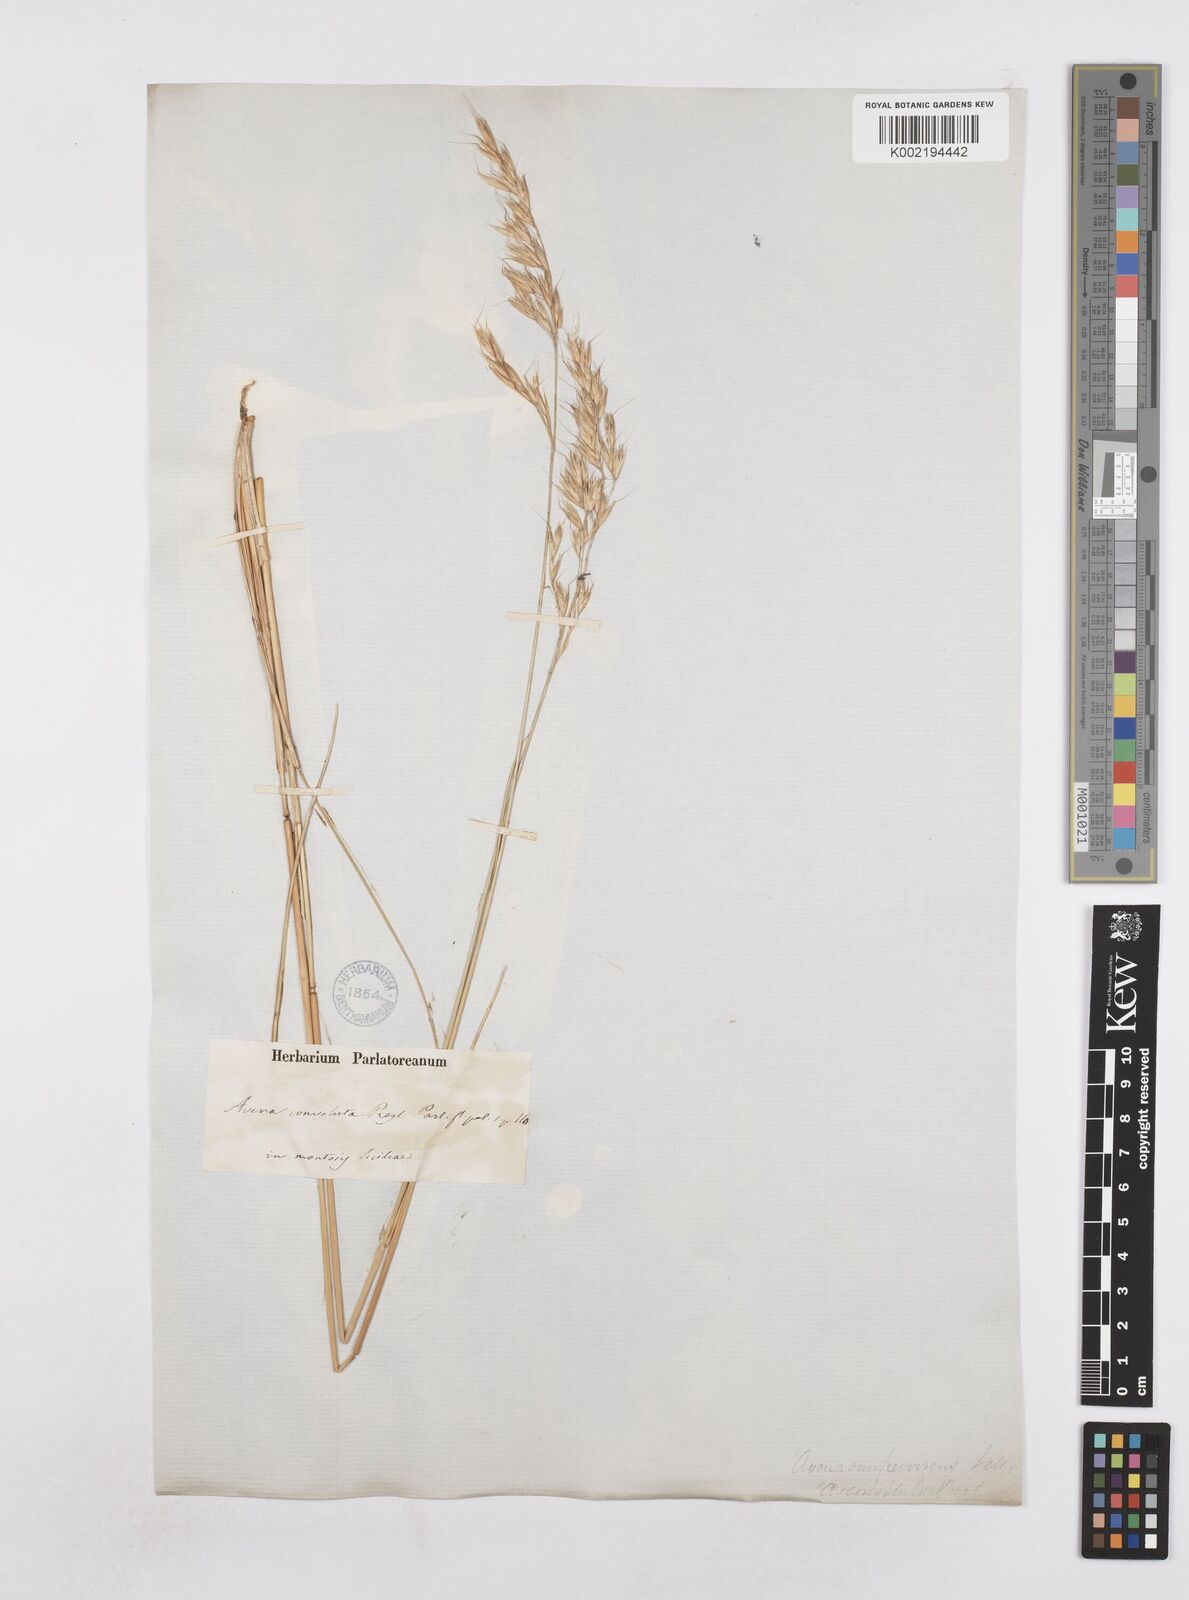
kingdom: Plantae
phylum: Tracheophyta
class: Liliopsida
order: Poales
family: Poaceae
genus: Helictotrichon
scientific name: Helictotrichon sempervirens
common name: Blue oat-grass
